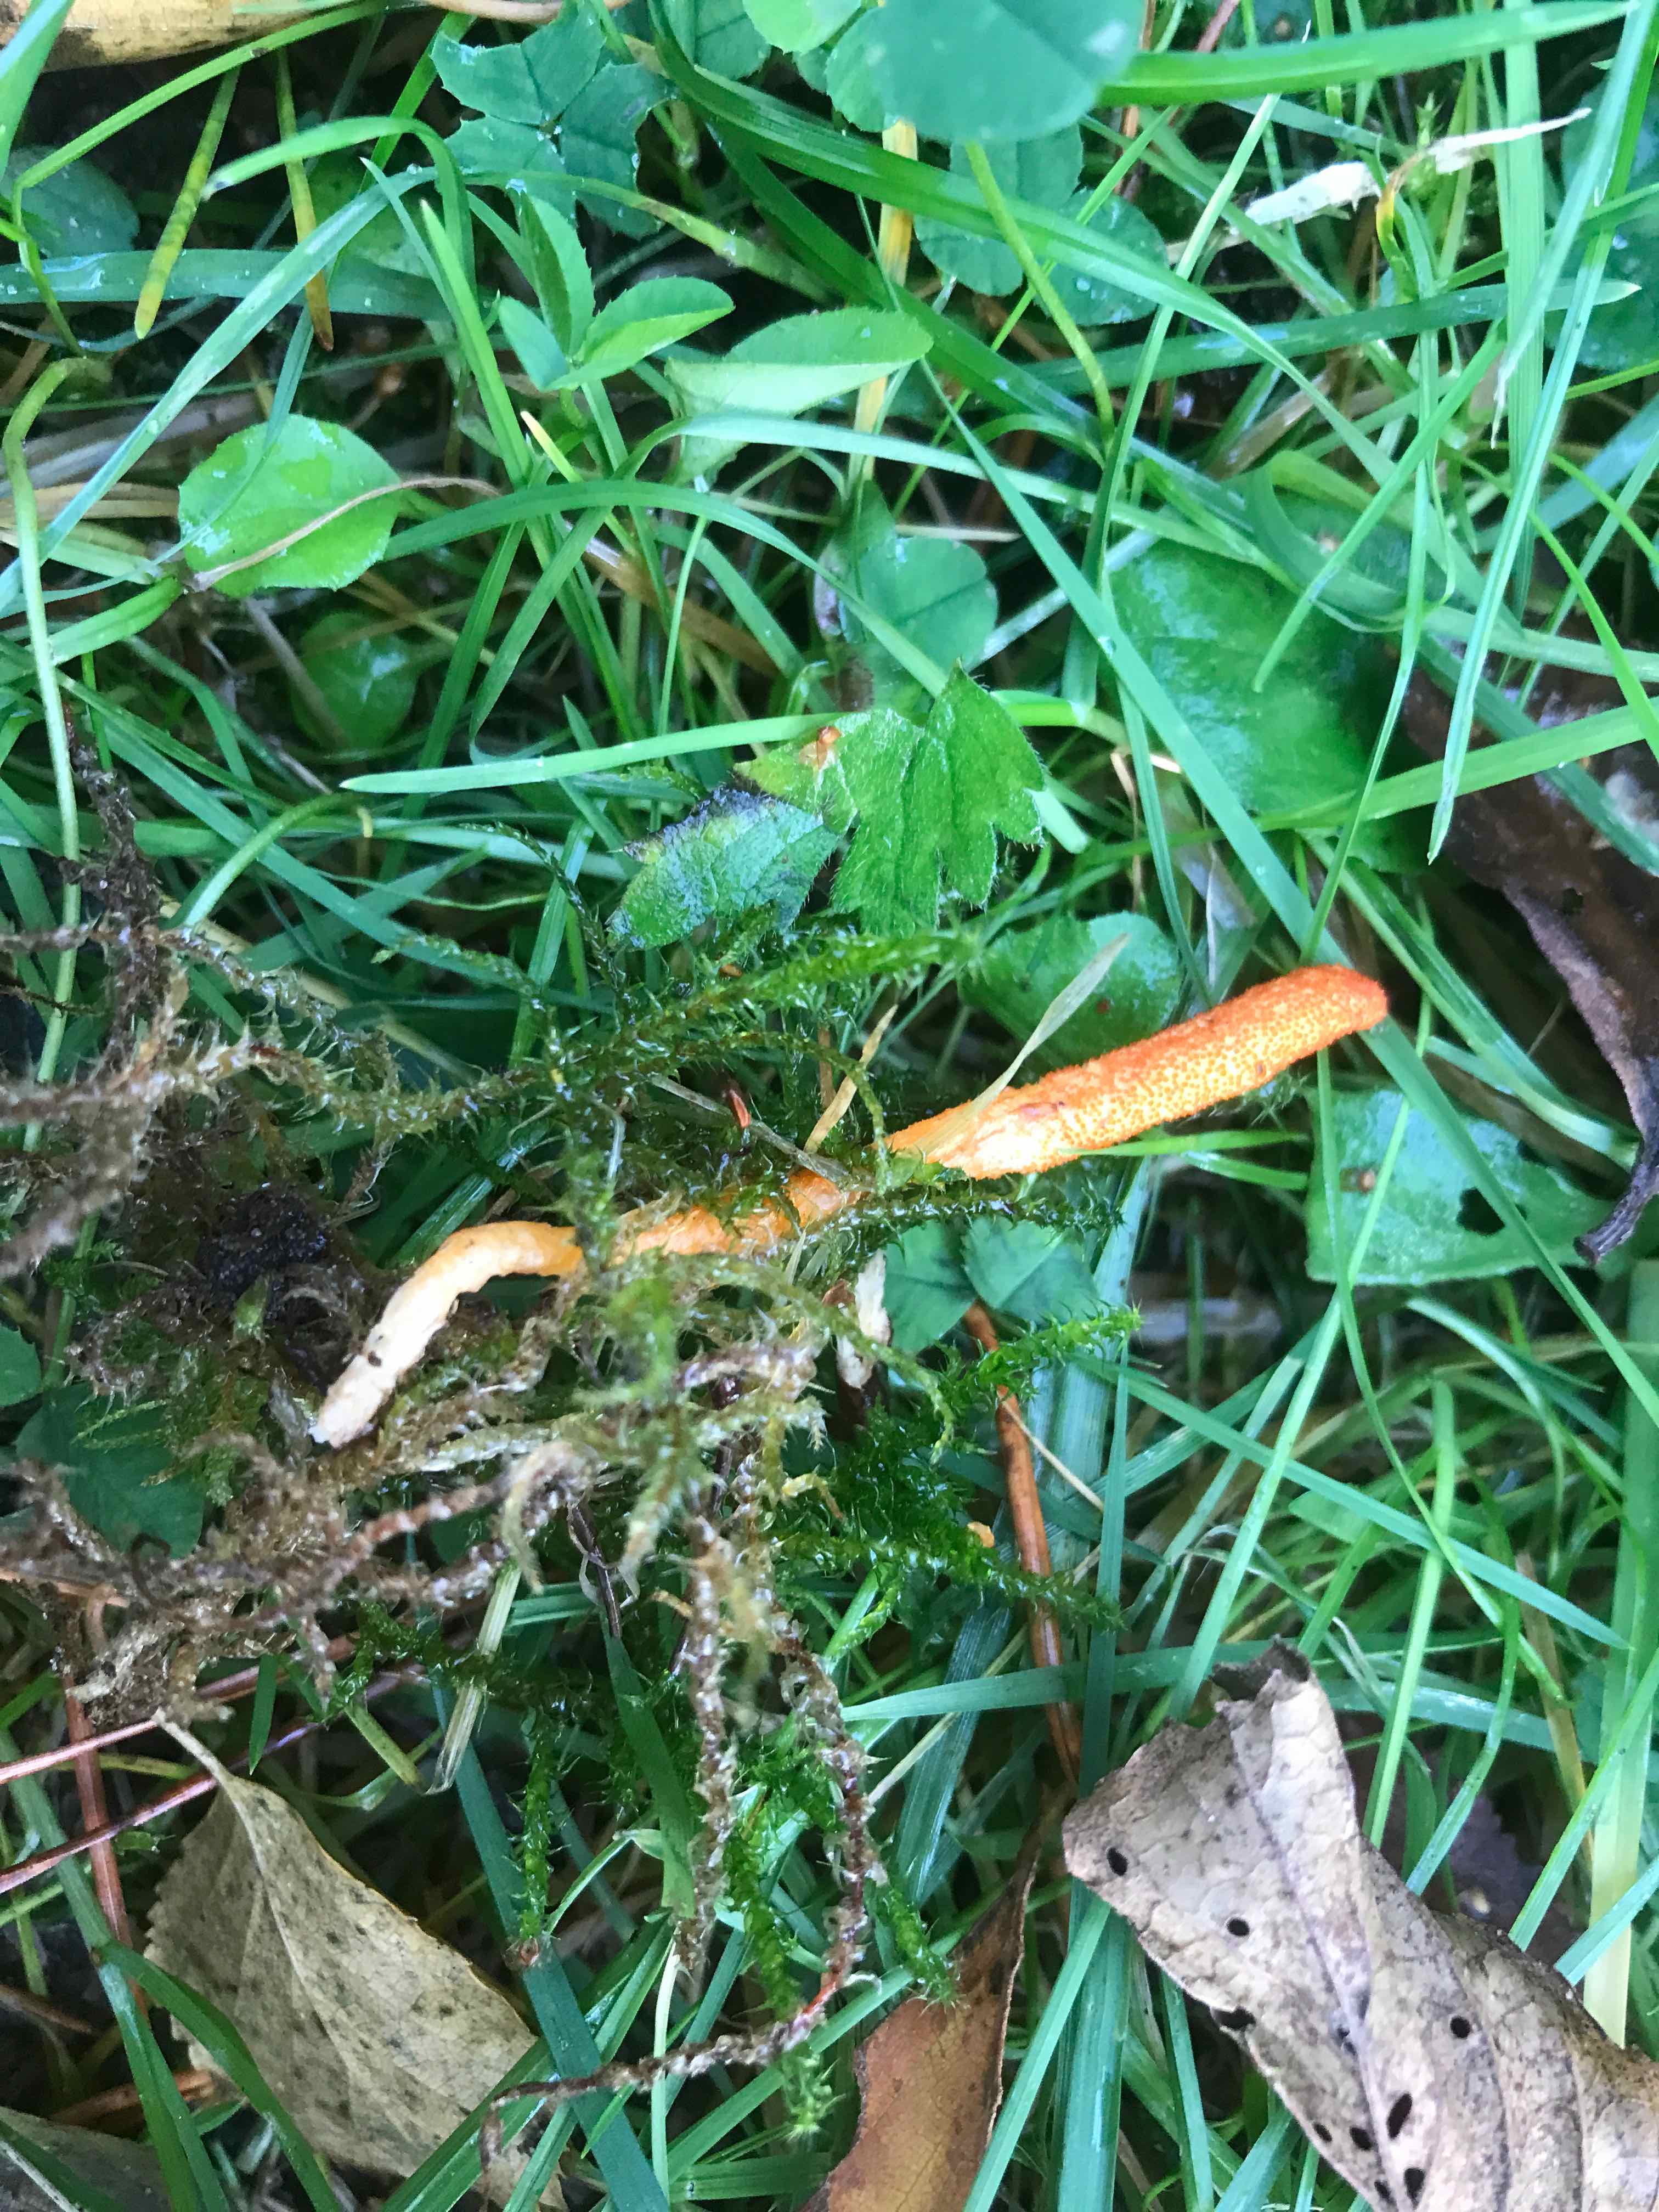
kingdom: Fungi
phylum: Ascomycota
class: Sordariomycetes
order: Hypocreales
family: Cordycipitaceae
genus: Cordyceps
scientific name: Cordyceps militaris
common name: puppe-snyltekølle
